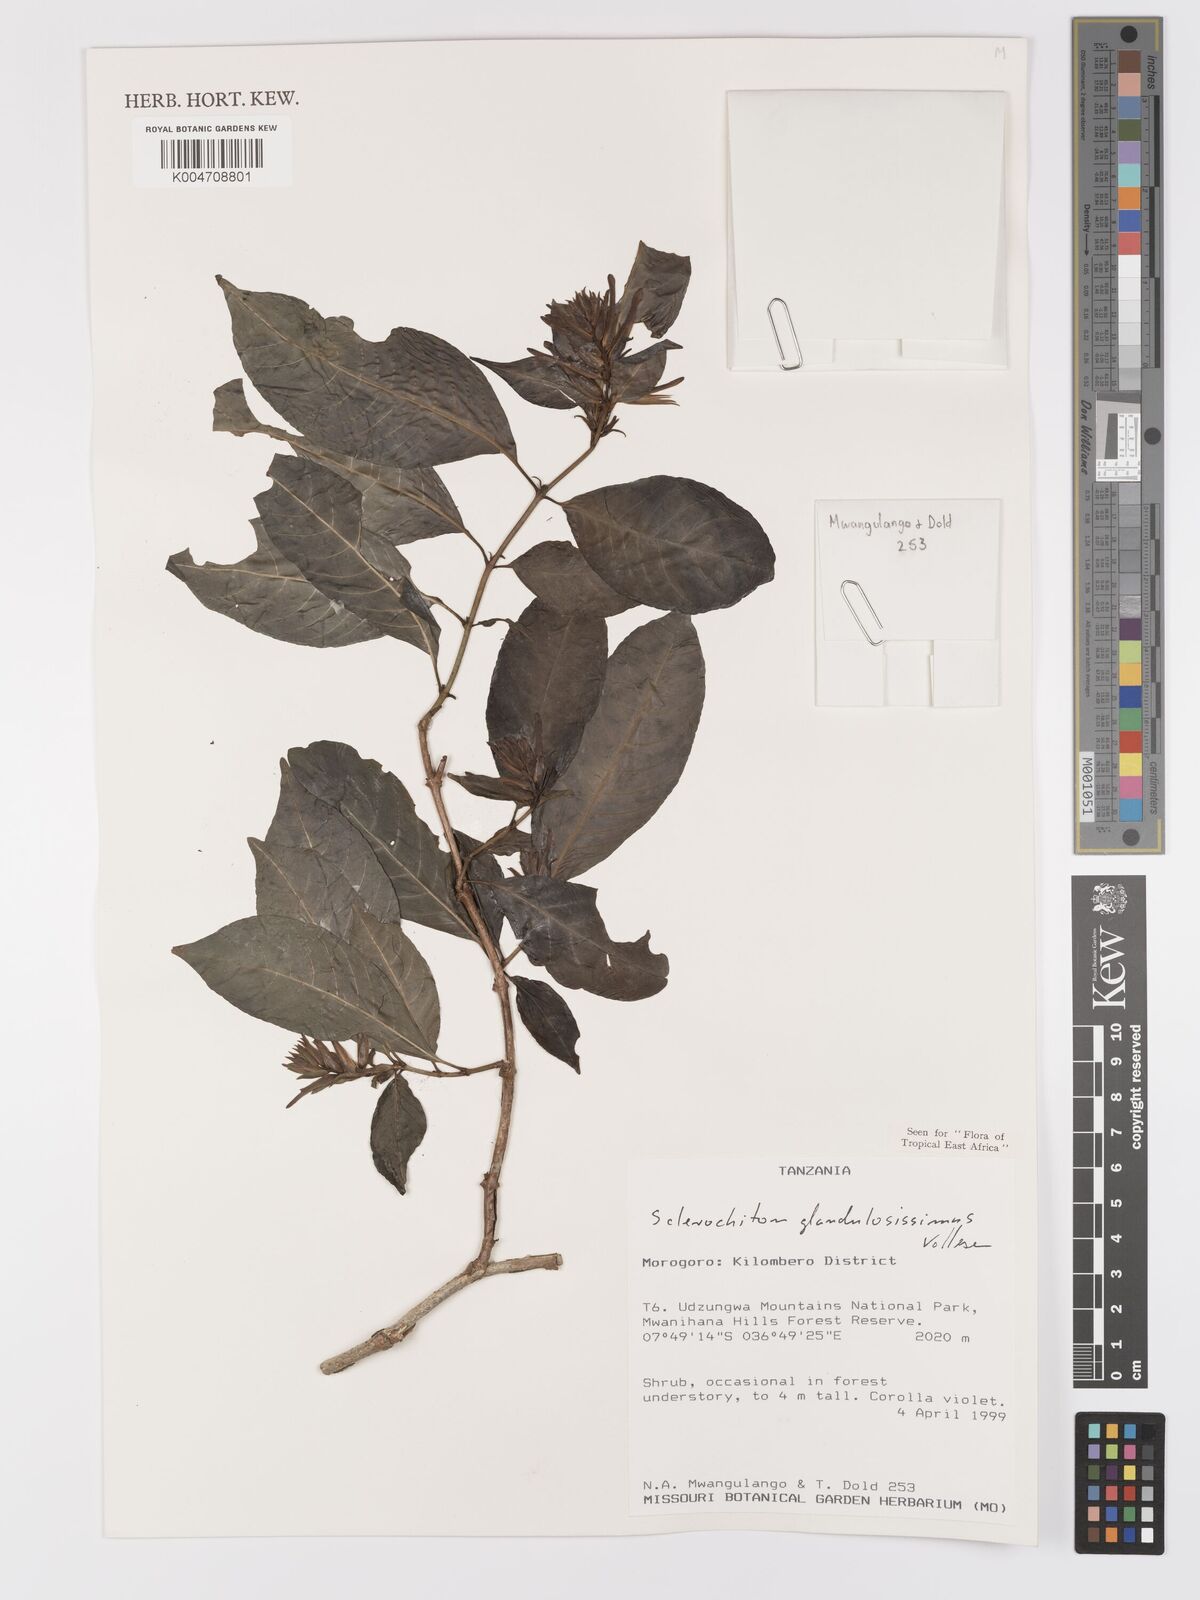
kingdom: Plantae
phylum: Tracheophyta
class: Magnoliopsida
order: Lamiales
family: Acanthaceae
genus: Sclerochiton
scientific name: Sclerochiton glandulosissimus
